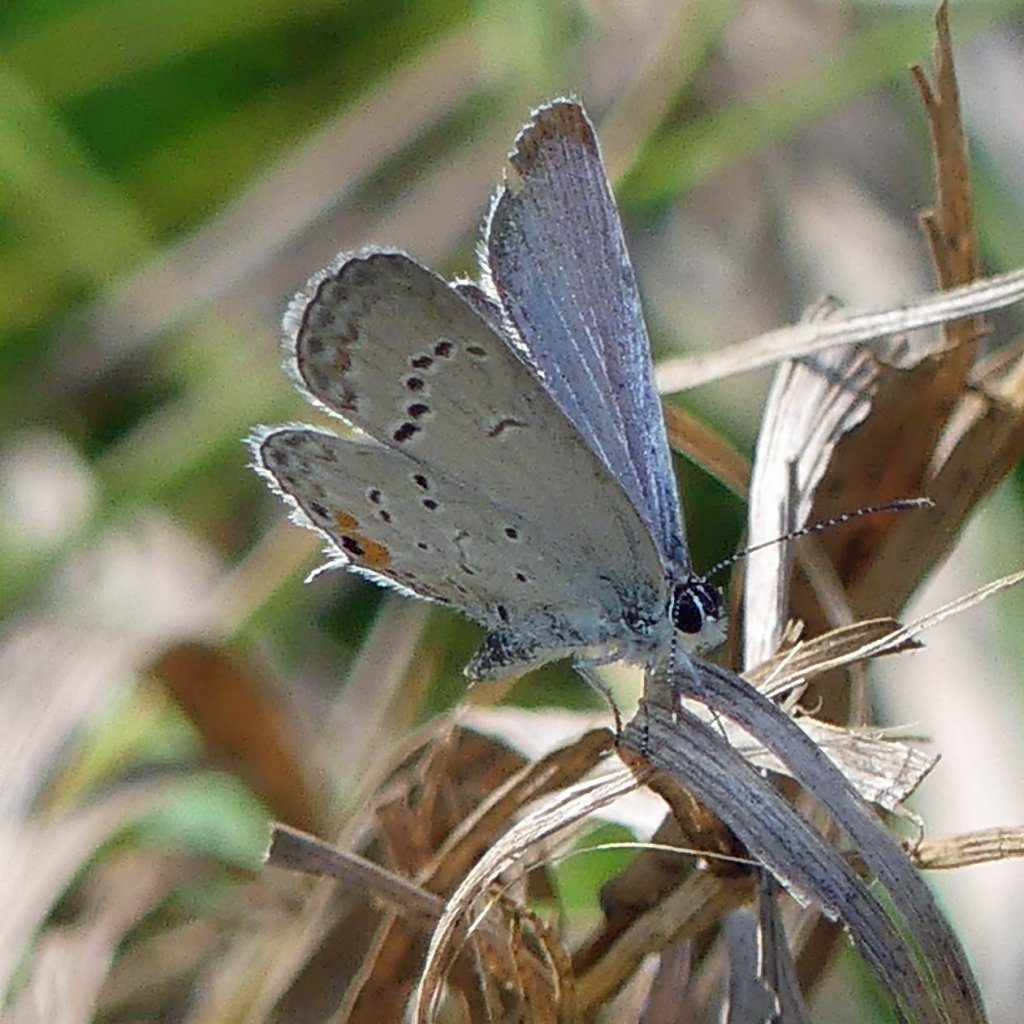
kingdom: Animalia
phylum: Arthropoda
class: Insecta
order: Lepidoptera
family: Lycaenidae
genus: Elkalyce
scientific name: Elkalyce comyntas
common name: Eastern Tailed-Blue
